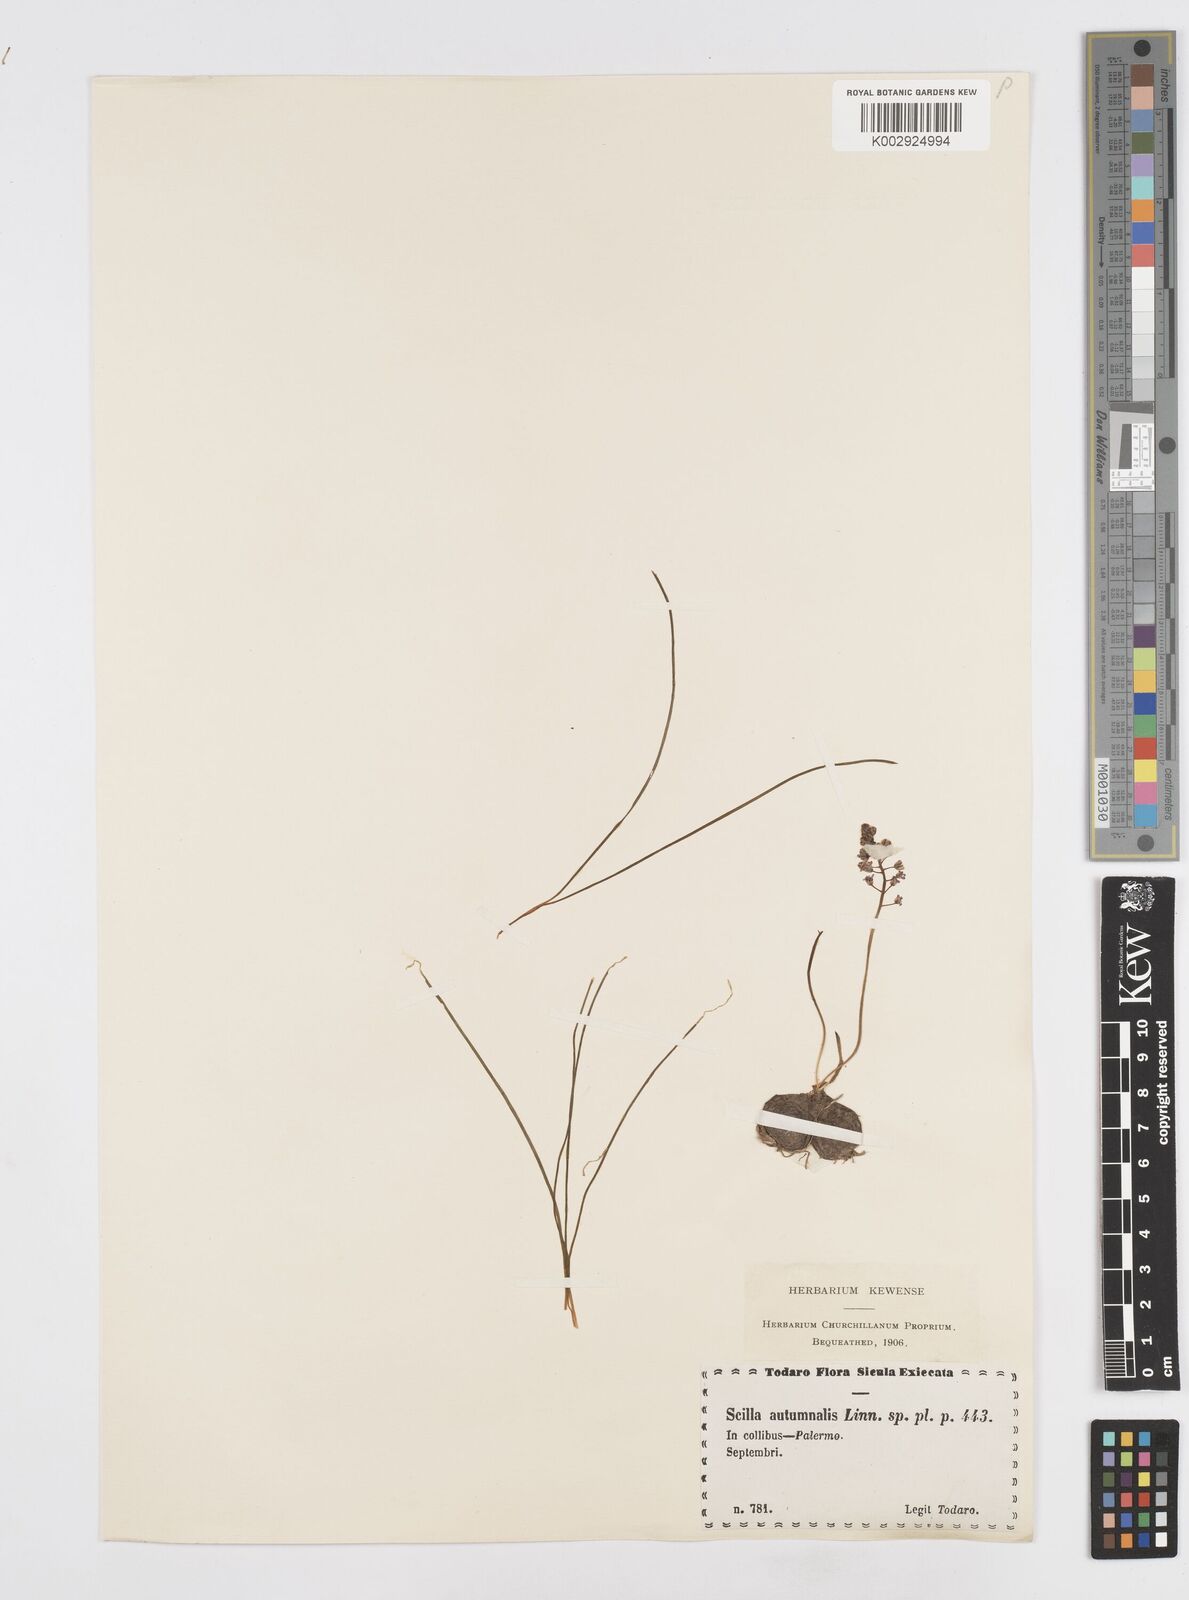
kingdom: Plantae
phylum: Tracheophyta
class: Liliopsida
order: Asparagales
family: Asparagaceae
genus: Prospero
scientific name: Prospero autumnale
